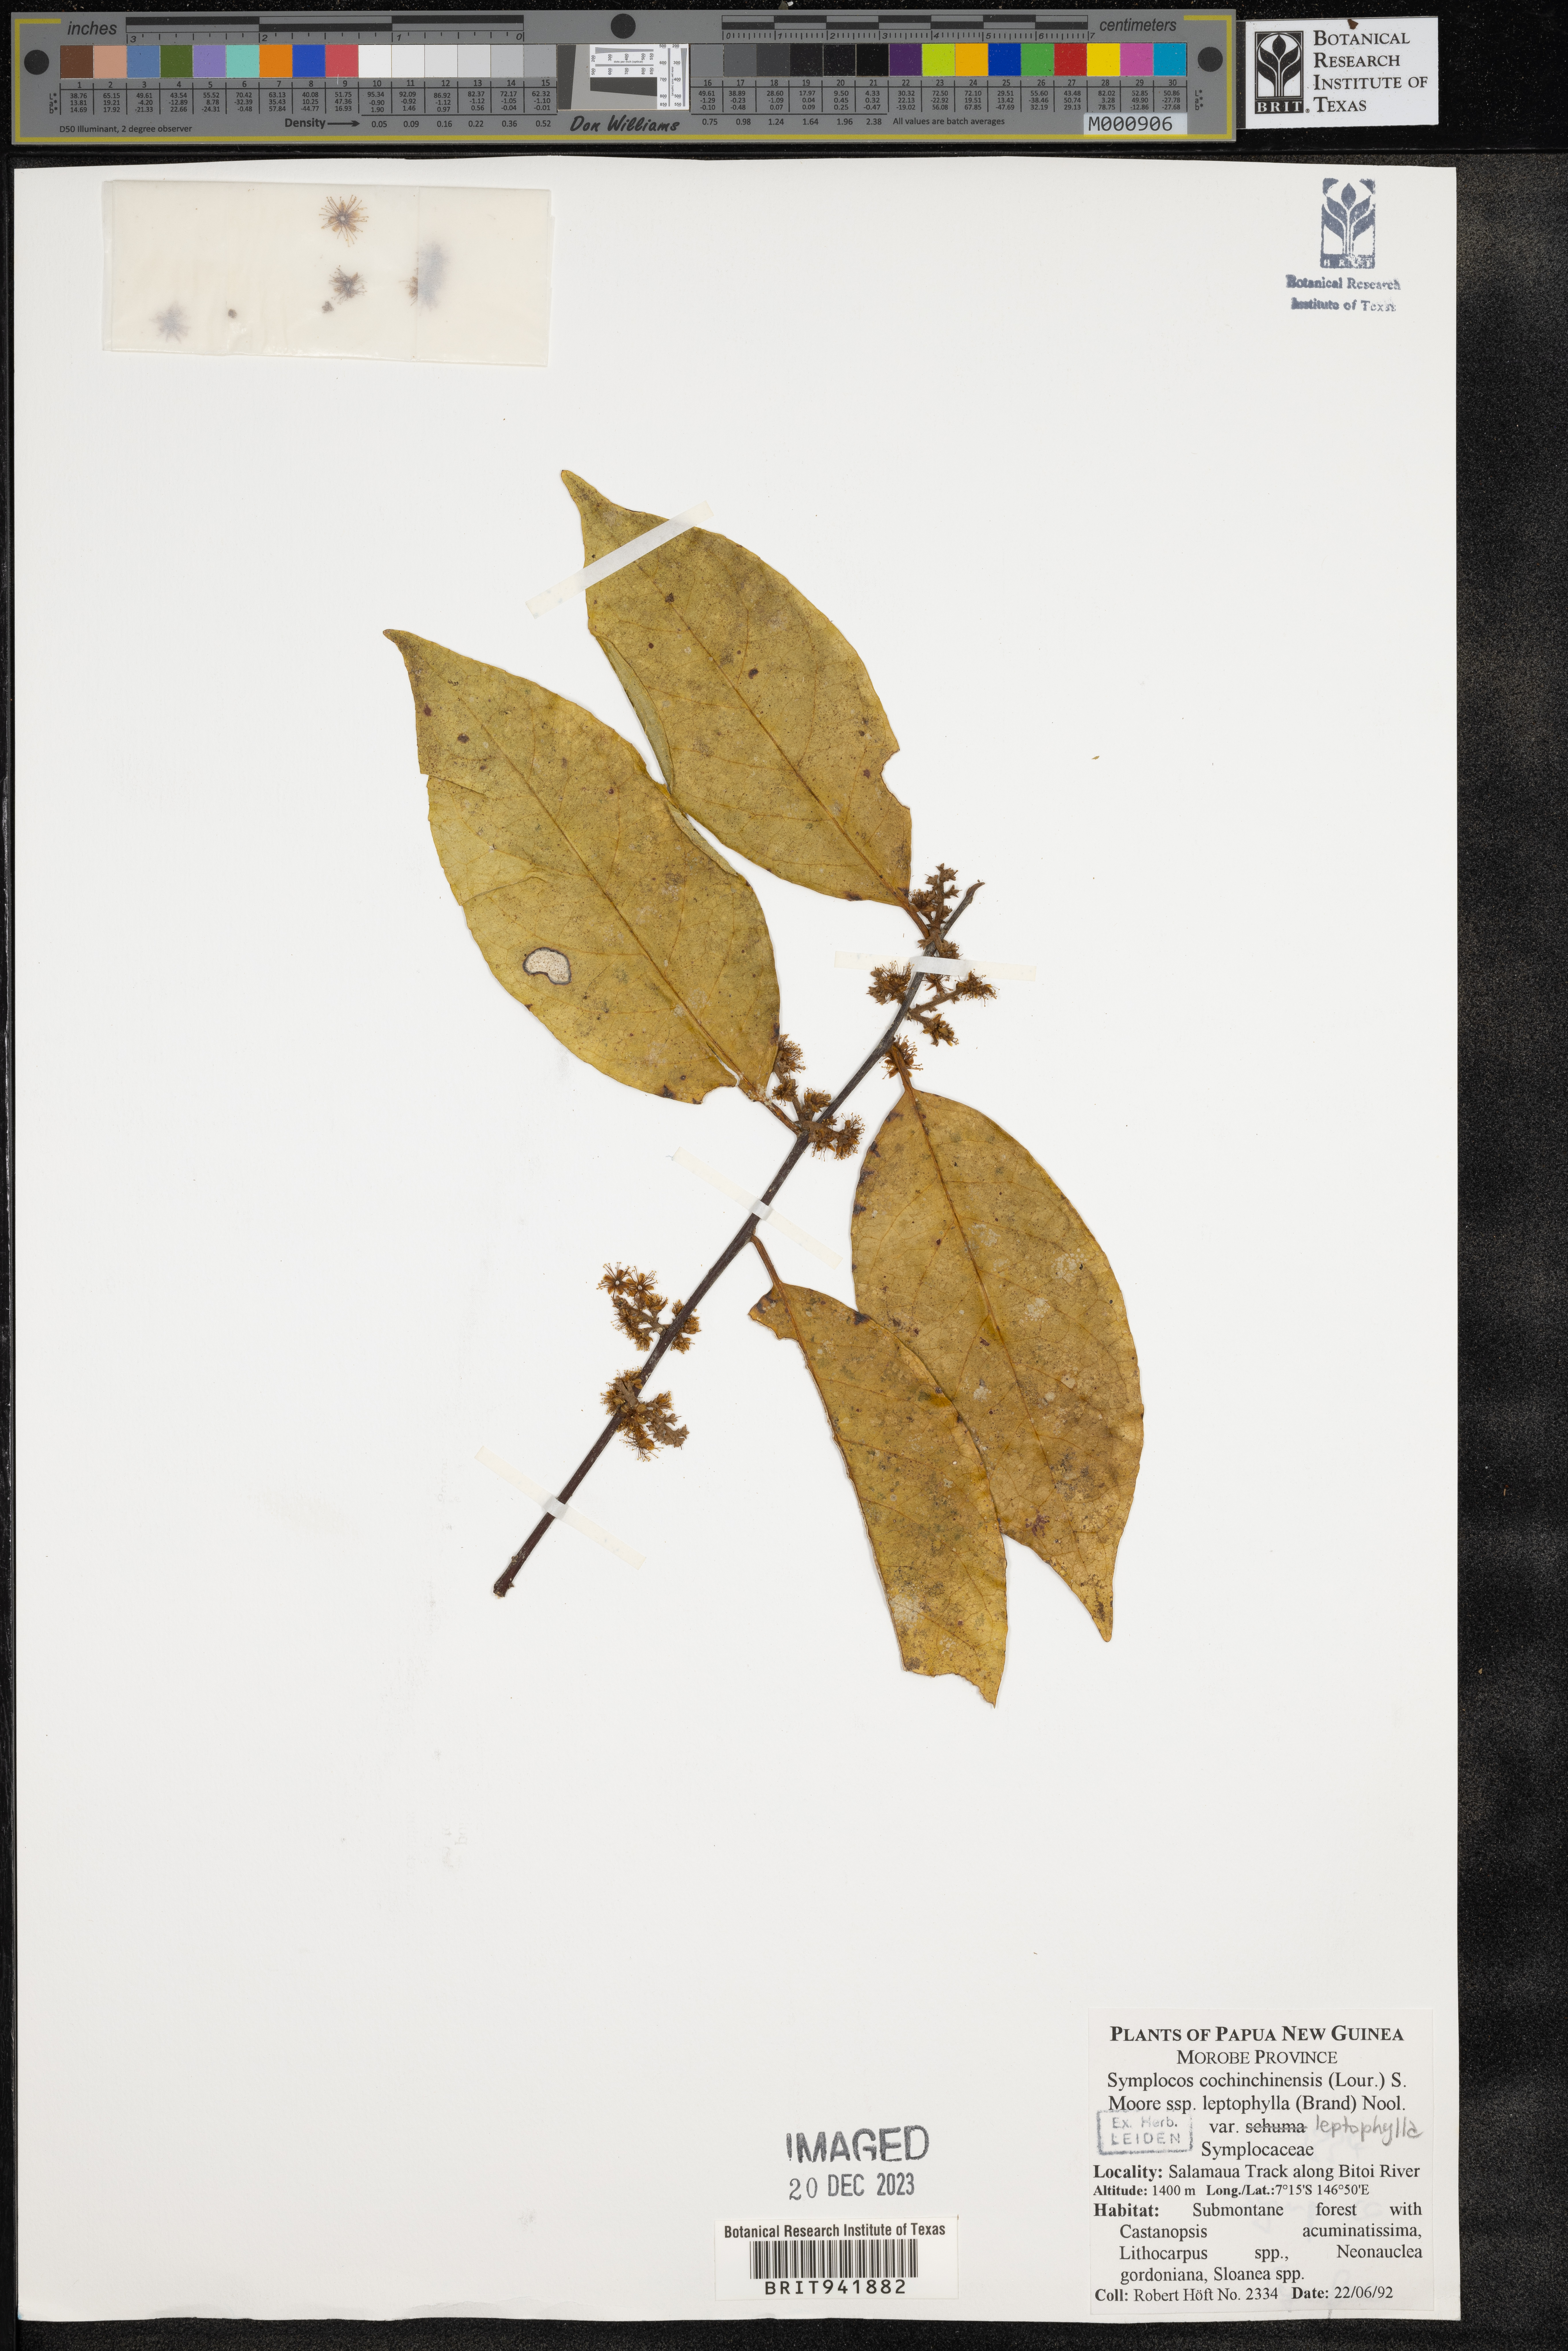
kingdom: Plantae
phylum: Tracheophyta
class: Magnoliopsida
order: Ericales
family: Symplocaceae
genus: Symplocos
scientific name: Symplocos cochinchinensis
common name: Buff hazelwood
